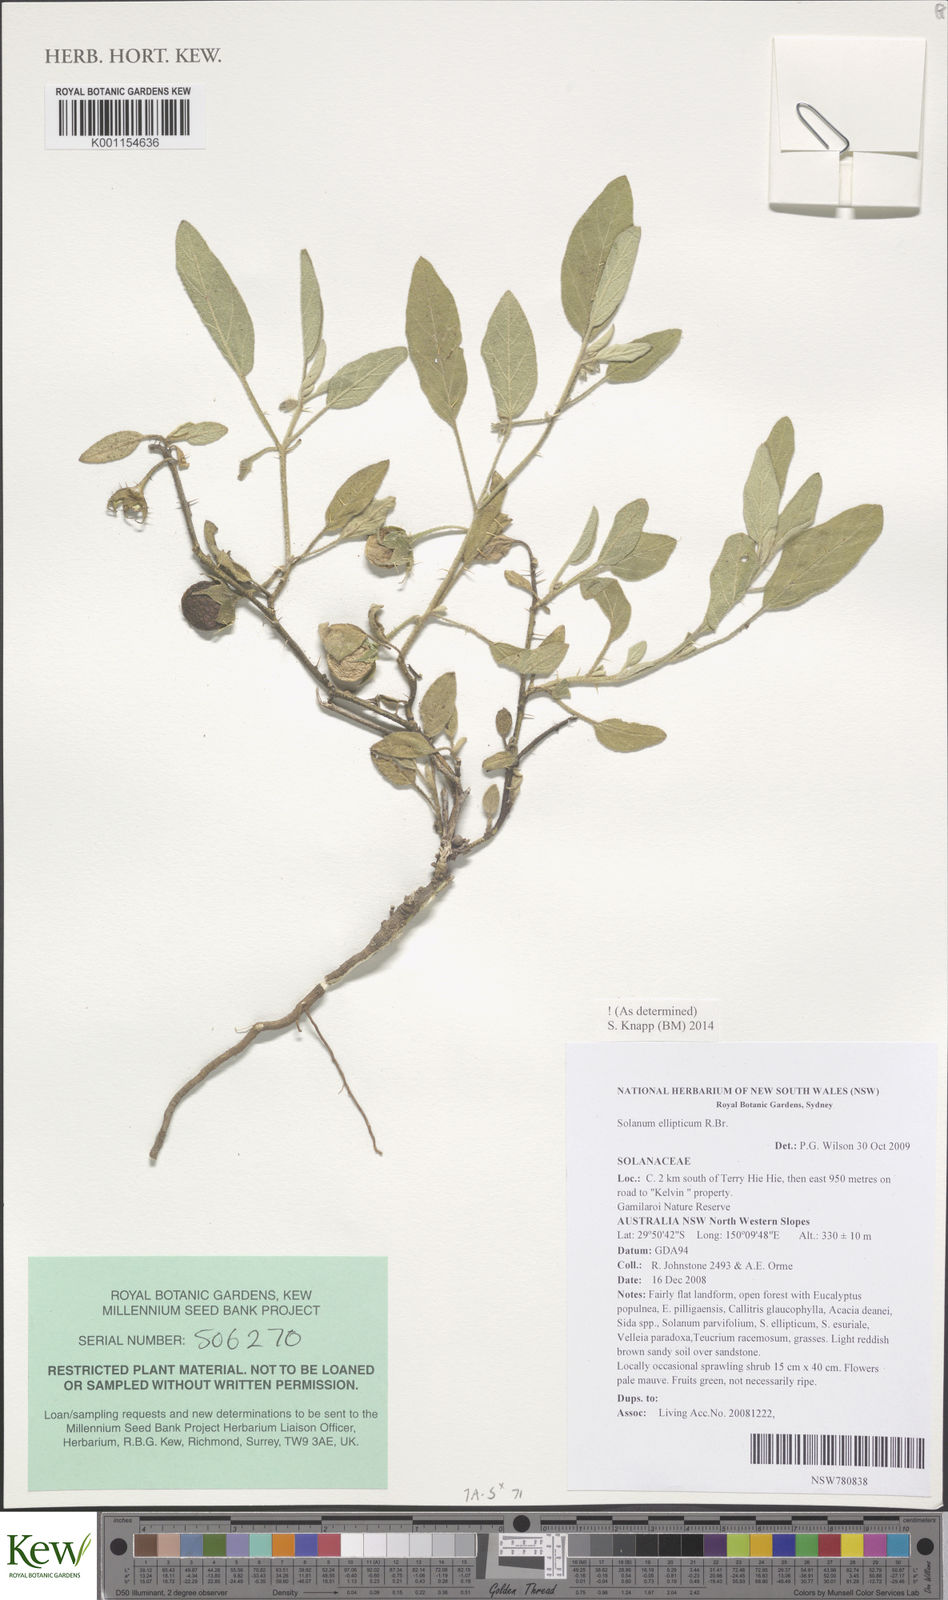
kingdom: Plantae
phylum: Tracheophyta
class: Magnoliopsida
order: Solanales
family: Solanaceae
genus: Solanum
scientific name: Solanum ellipticum
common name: Potato-bush
